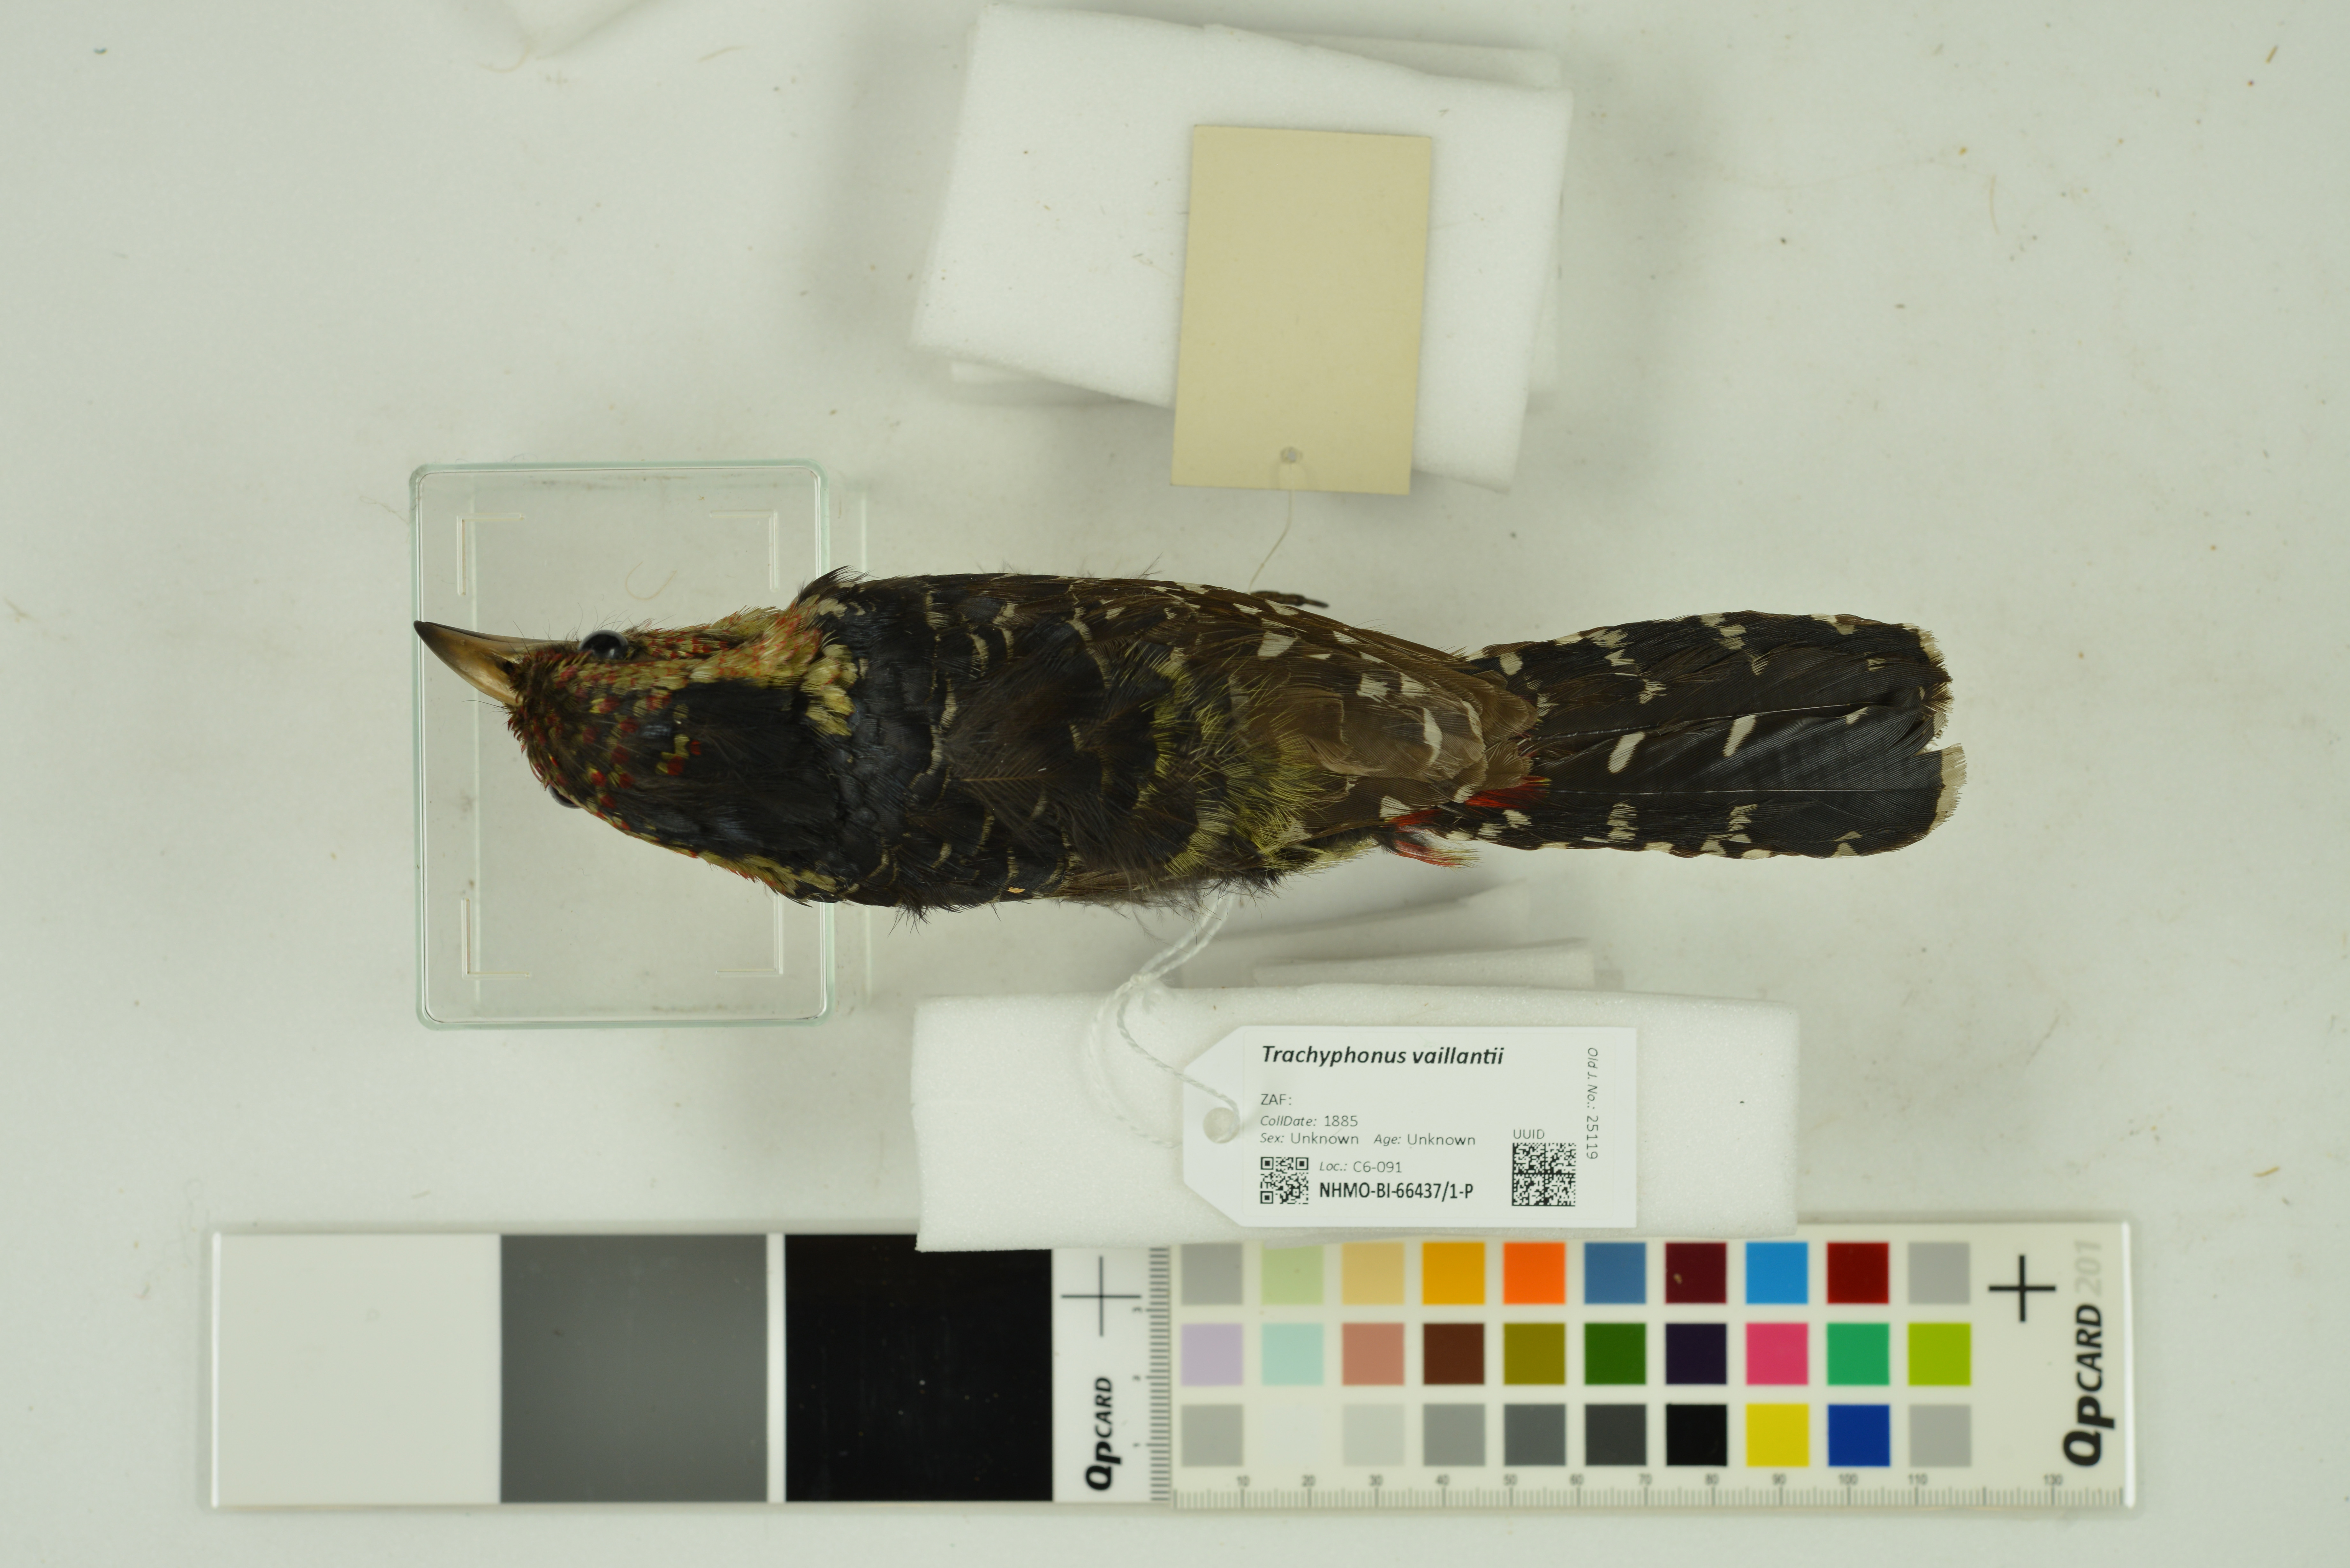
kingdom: Animalia
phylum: Chordata
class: Aves
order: Piciformes
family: Lybiidae
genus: Trachyphonus
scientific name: Trachyphonus vaillantii
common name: Crested barbet
